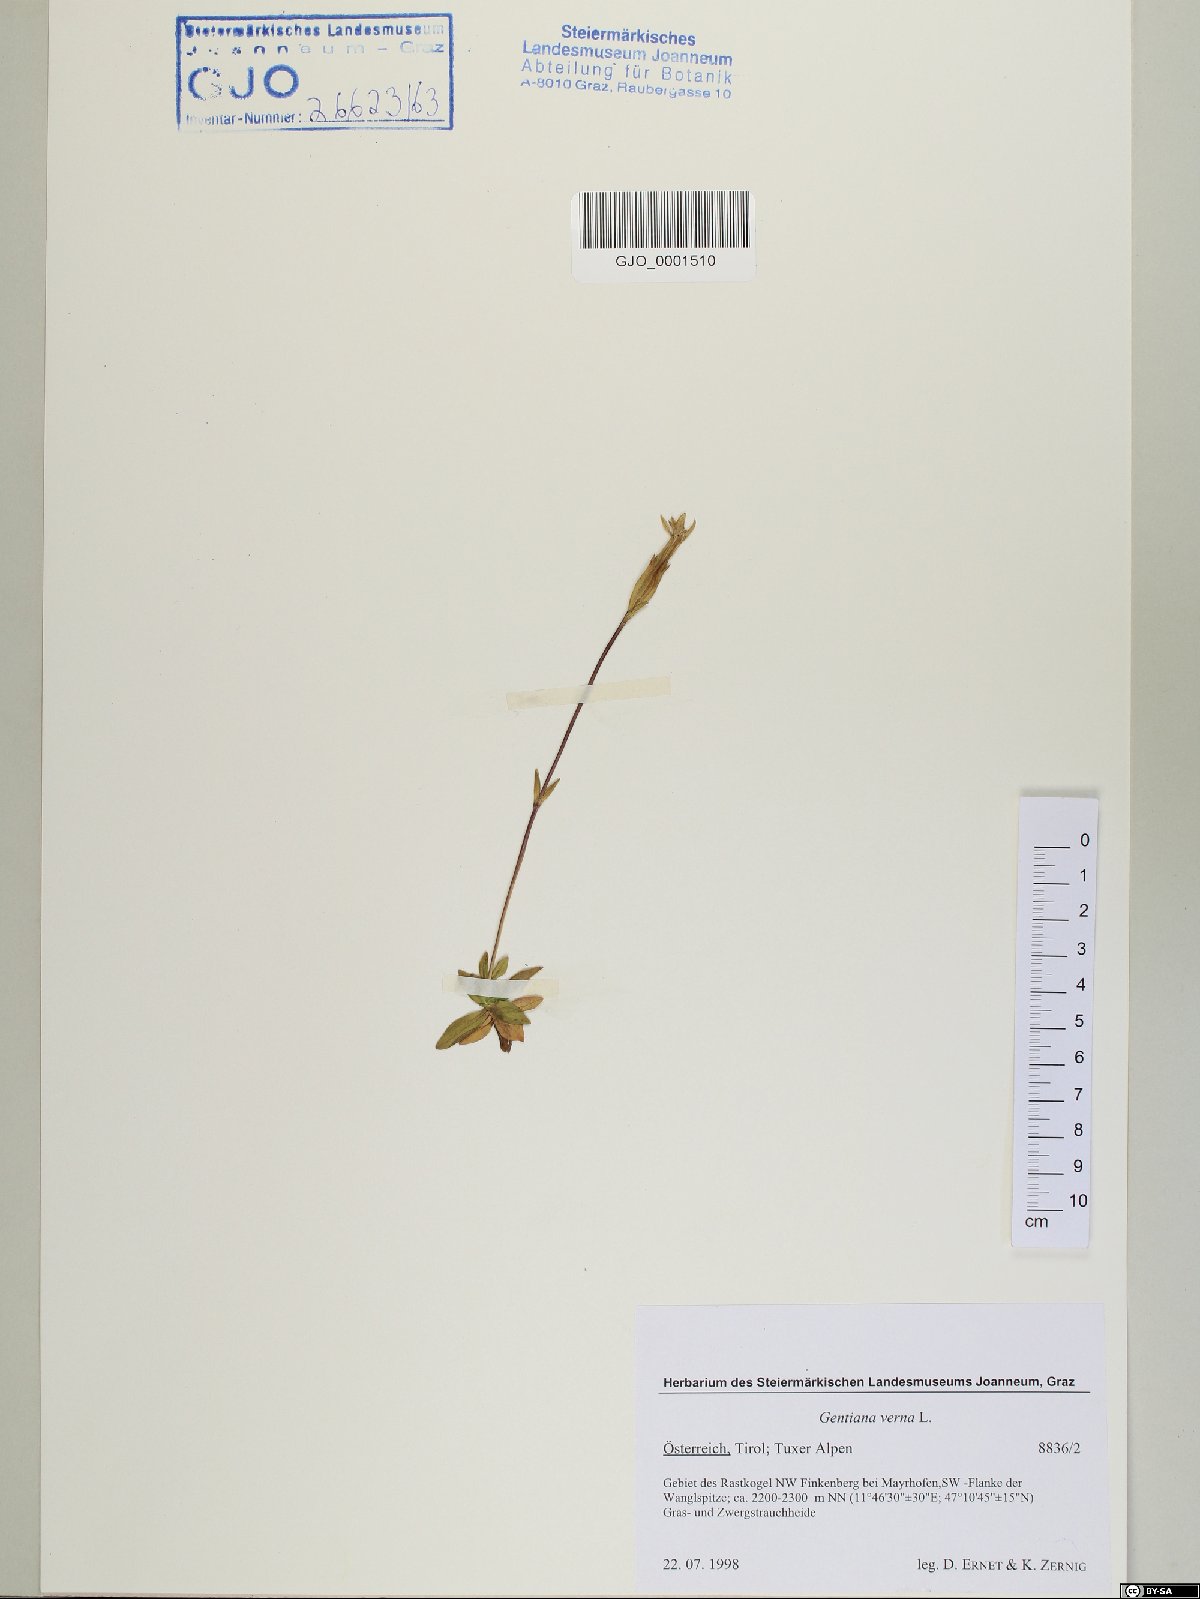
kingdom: Plantae
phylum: Tracheophyta
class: Magnoliopsida
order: Gentianales
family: Gentianaceae
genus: Gentiana
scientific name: Gentiana verna
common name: Spring gentian
